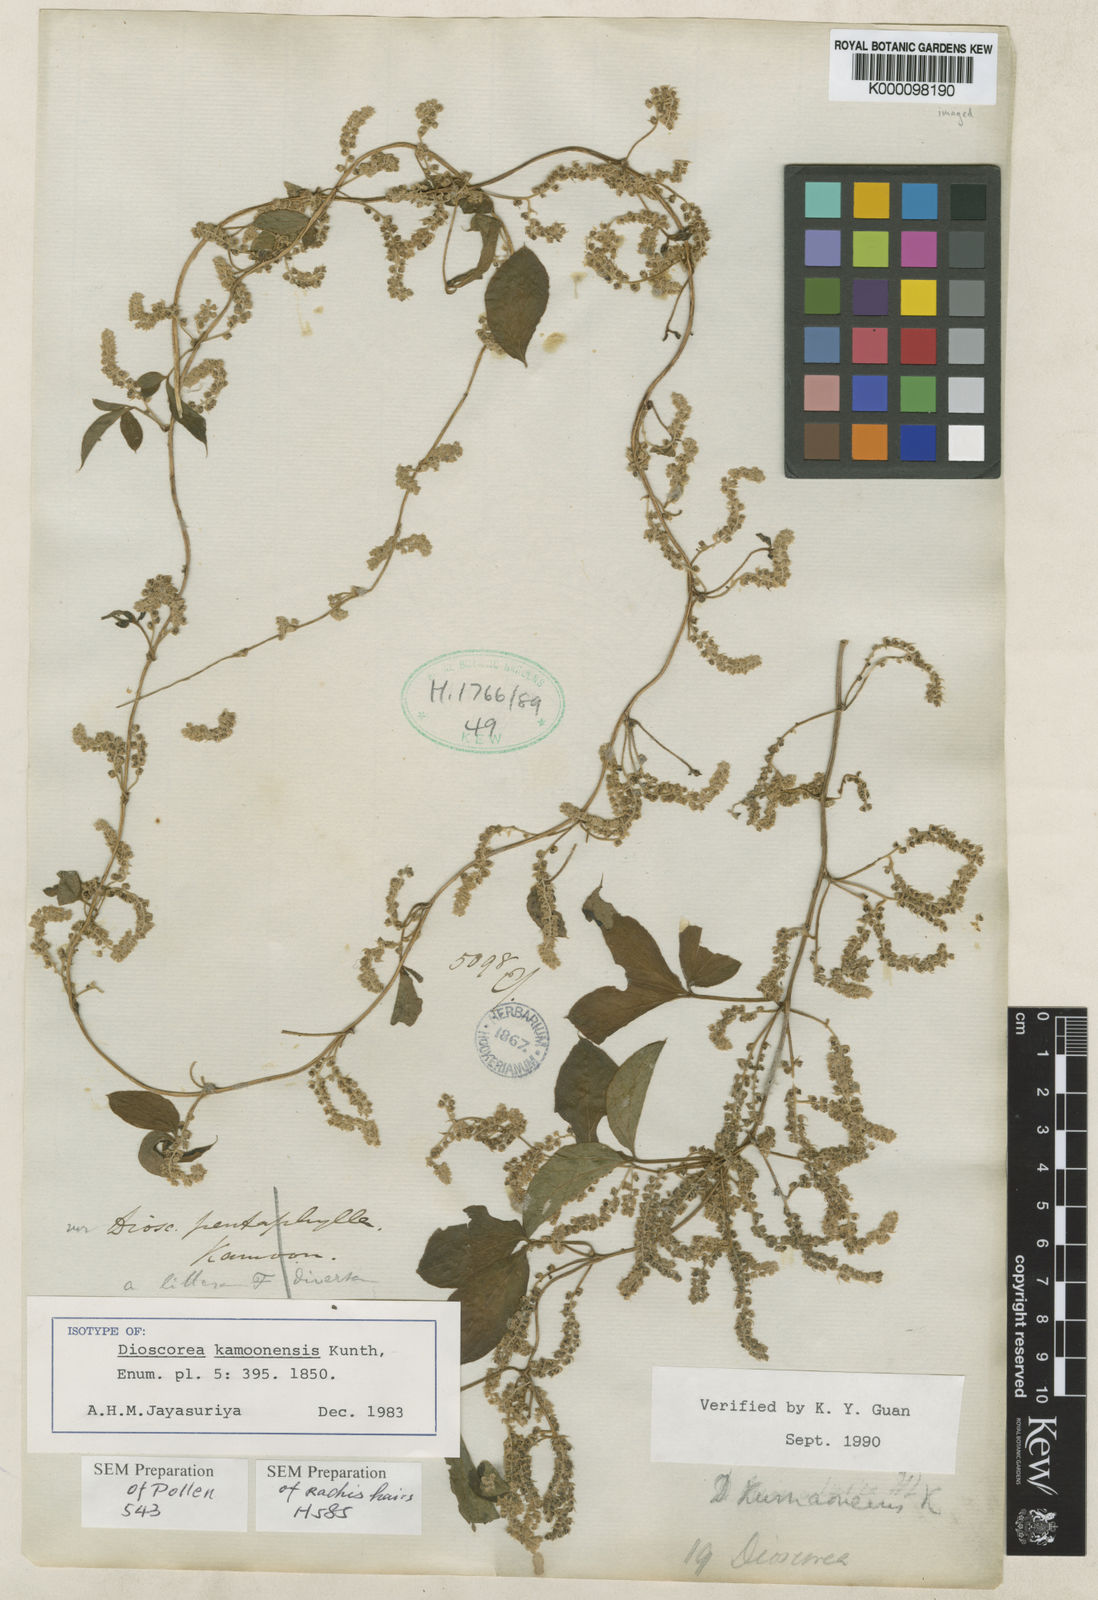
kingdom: Plantae
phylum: Tracheophyta
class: Liliopsida
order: Dioscoreales
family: Dioscoreaceae
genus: Dioscorea
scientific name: Dioscorea kamoonensis
